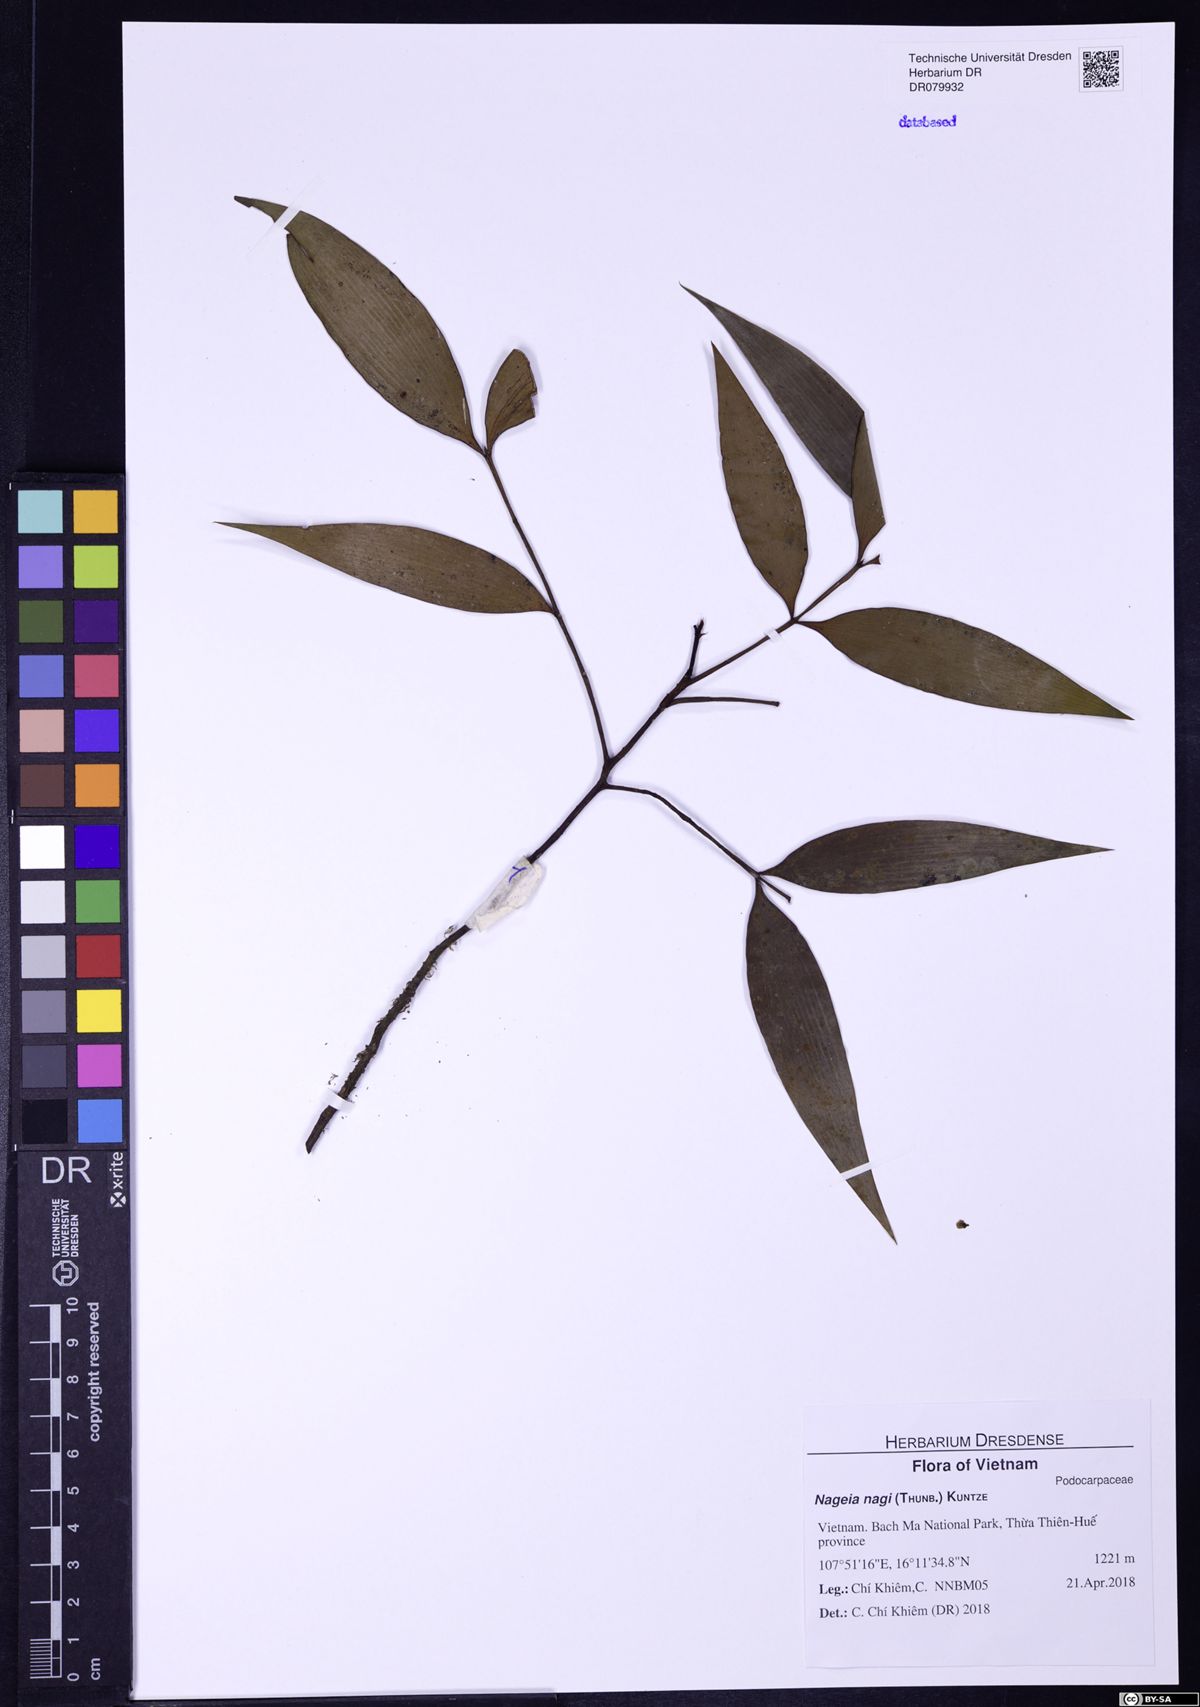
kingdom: Plantae
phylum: Tracheophyta
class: Pinopsida
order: Pinales
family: Podocarpaceae
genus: Nageia
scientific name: Nageia nagi
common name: Kaphal
